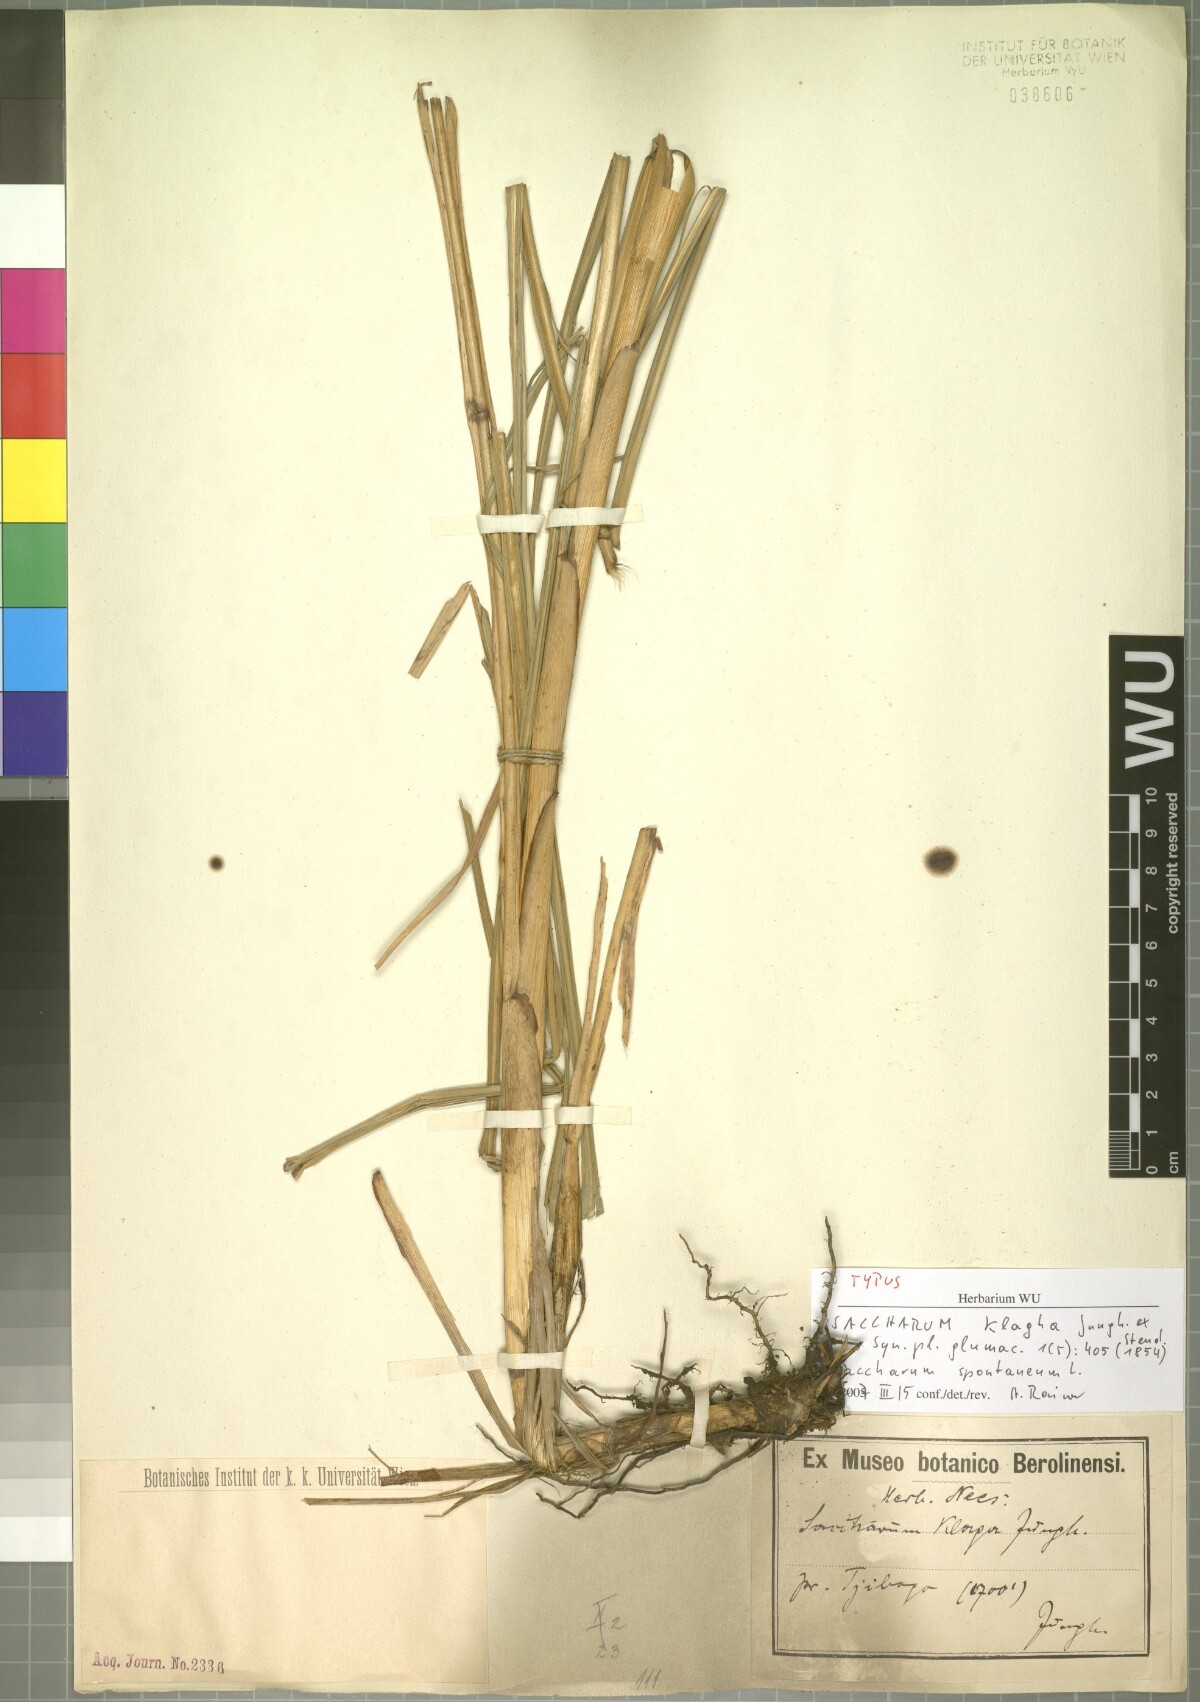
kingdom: Plantae
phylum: Tracheophyta
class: Liliopsida
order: Poales
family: Poaceae
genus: Saccharum
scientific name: Saccharum spontaneum
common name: Wild sugarcane
